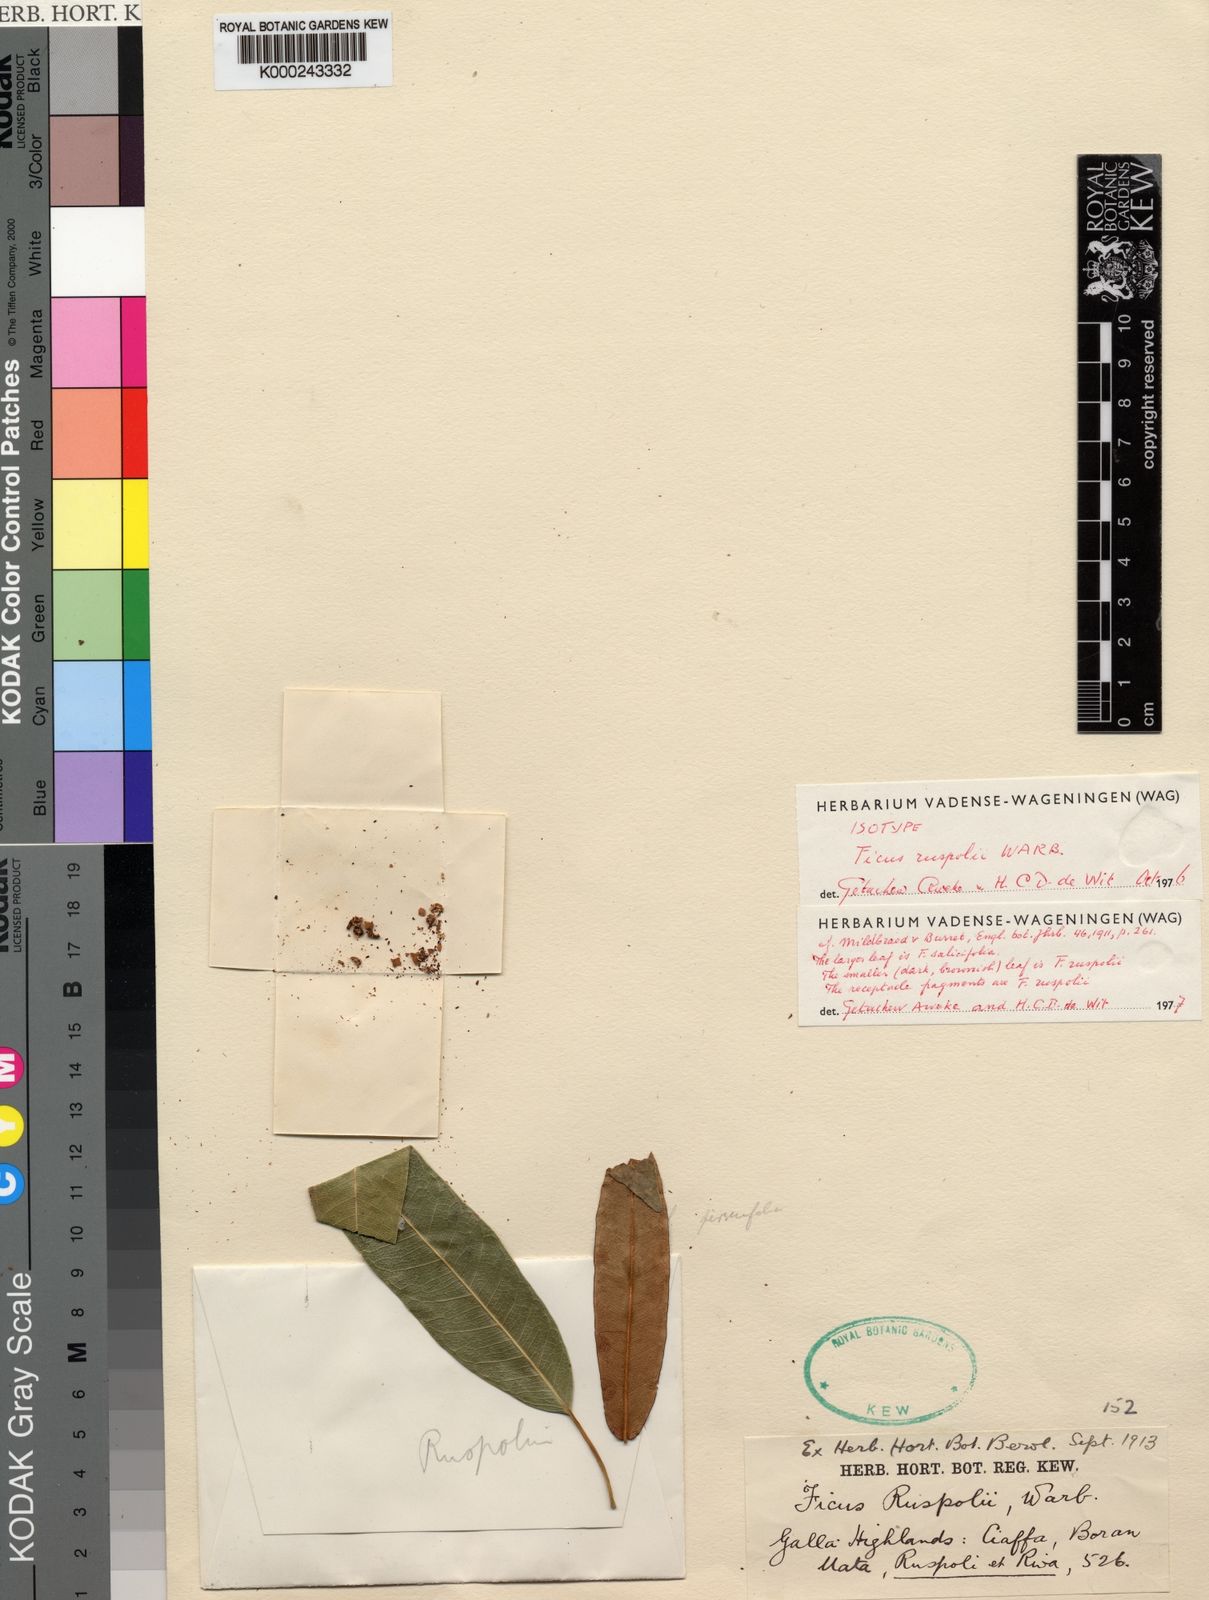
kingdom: Plantae
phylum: Tracheophyta
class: Magnoliopsida
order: Rosales
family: Moraceae
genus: Ficus
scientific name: Ficus ruspolii
